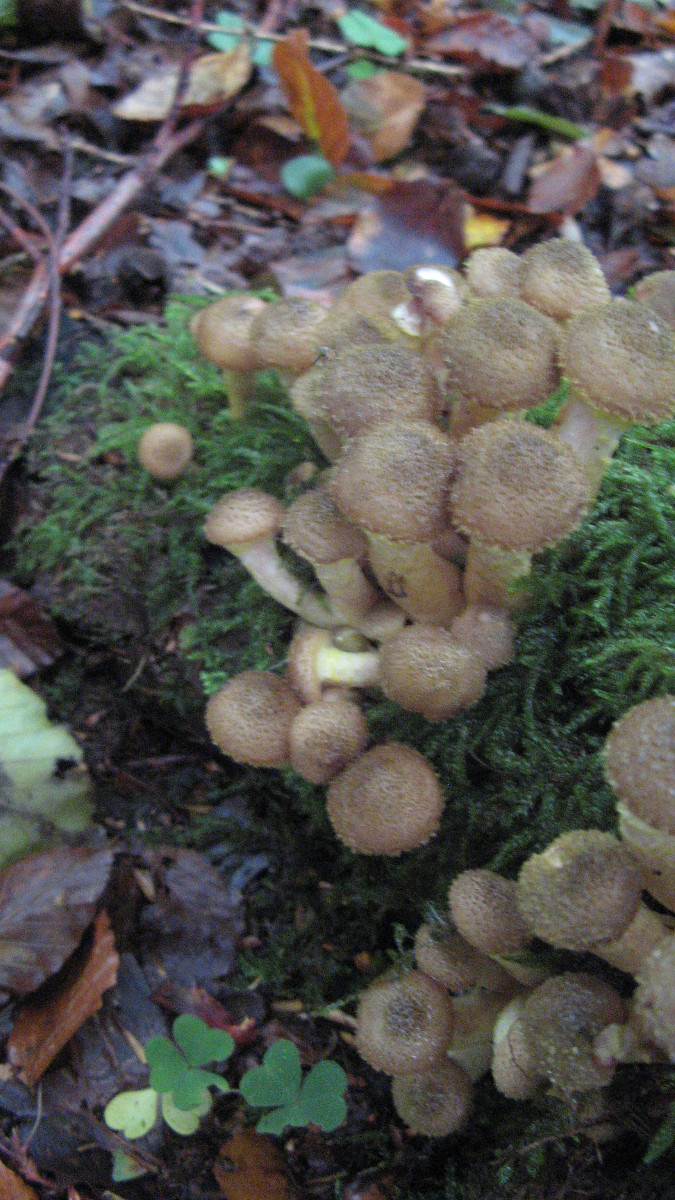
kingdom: Fungi
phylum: Basidiomycota
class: Agaricomycetes
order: Agaricales
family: Physalacriaceae
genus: Armillaria
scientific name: Armillaria lutea
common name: køllestokket honningsvamp
